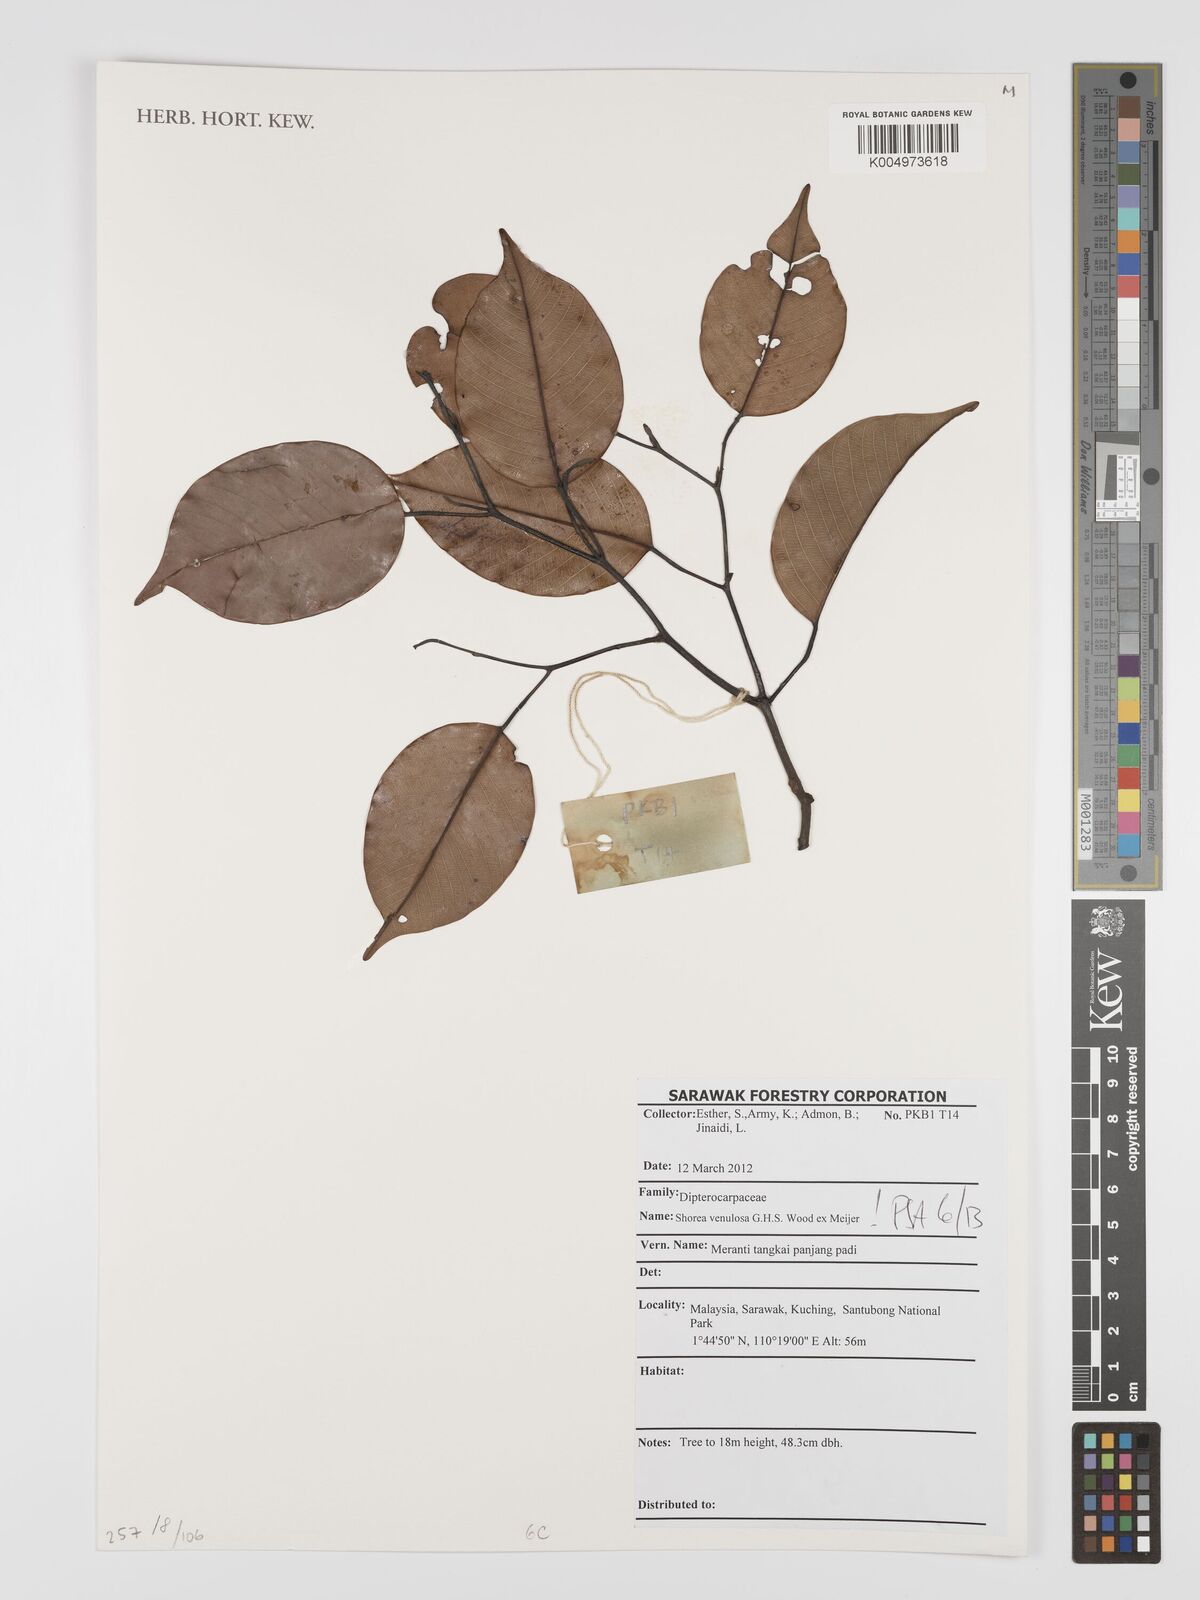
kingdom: Plantae
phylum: Tracheophyta
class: Magnoliopsida
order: Malvales
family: Dipterocarpaceae
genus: Shorea
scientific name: Shorea venulosa
